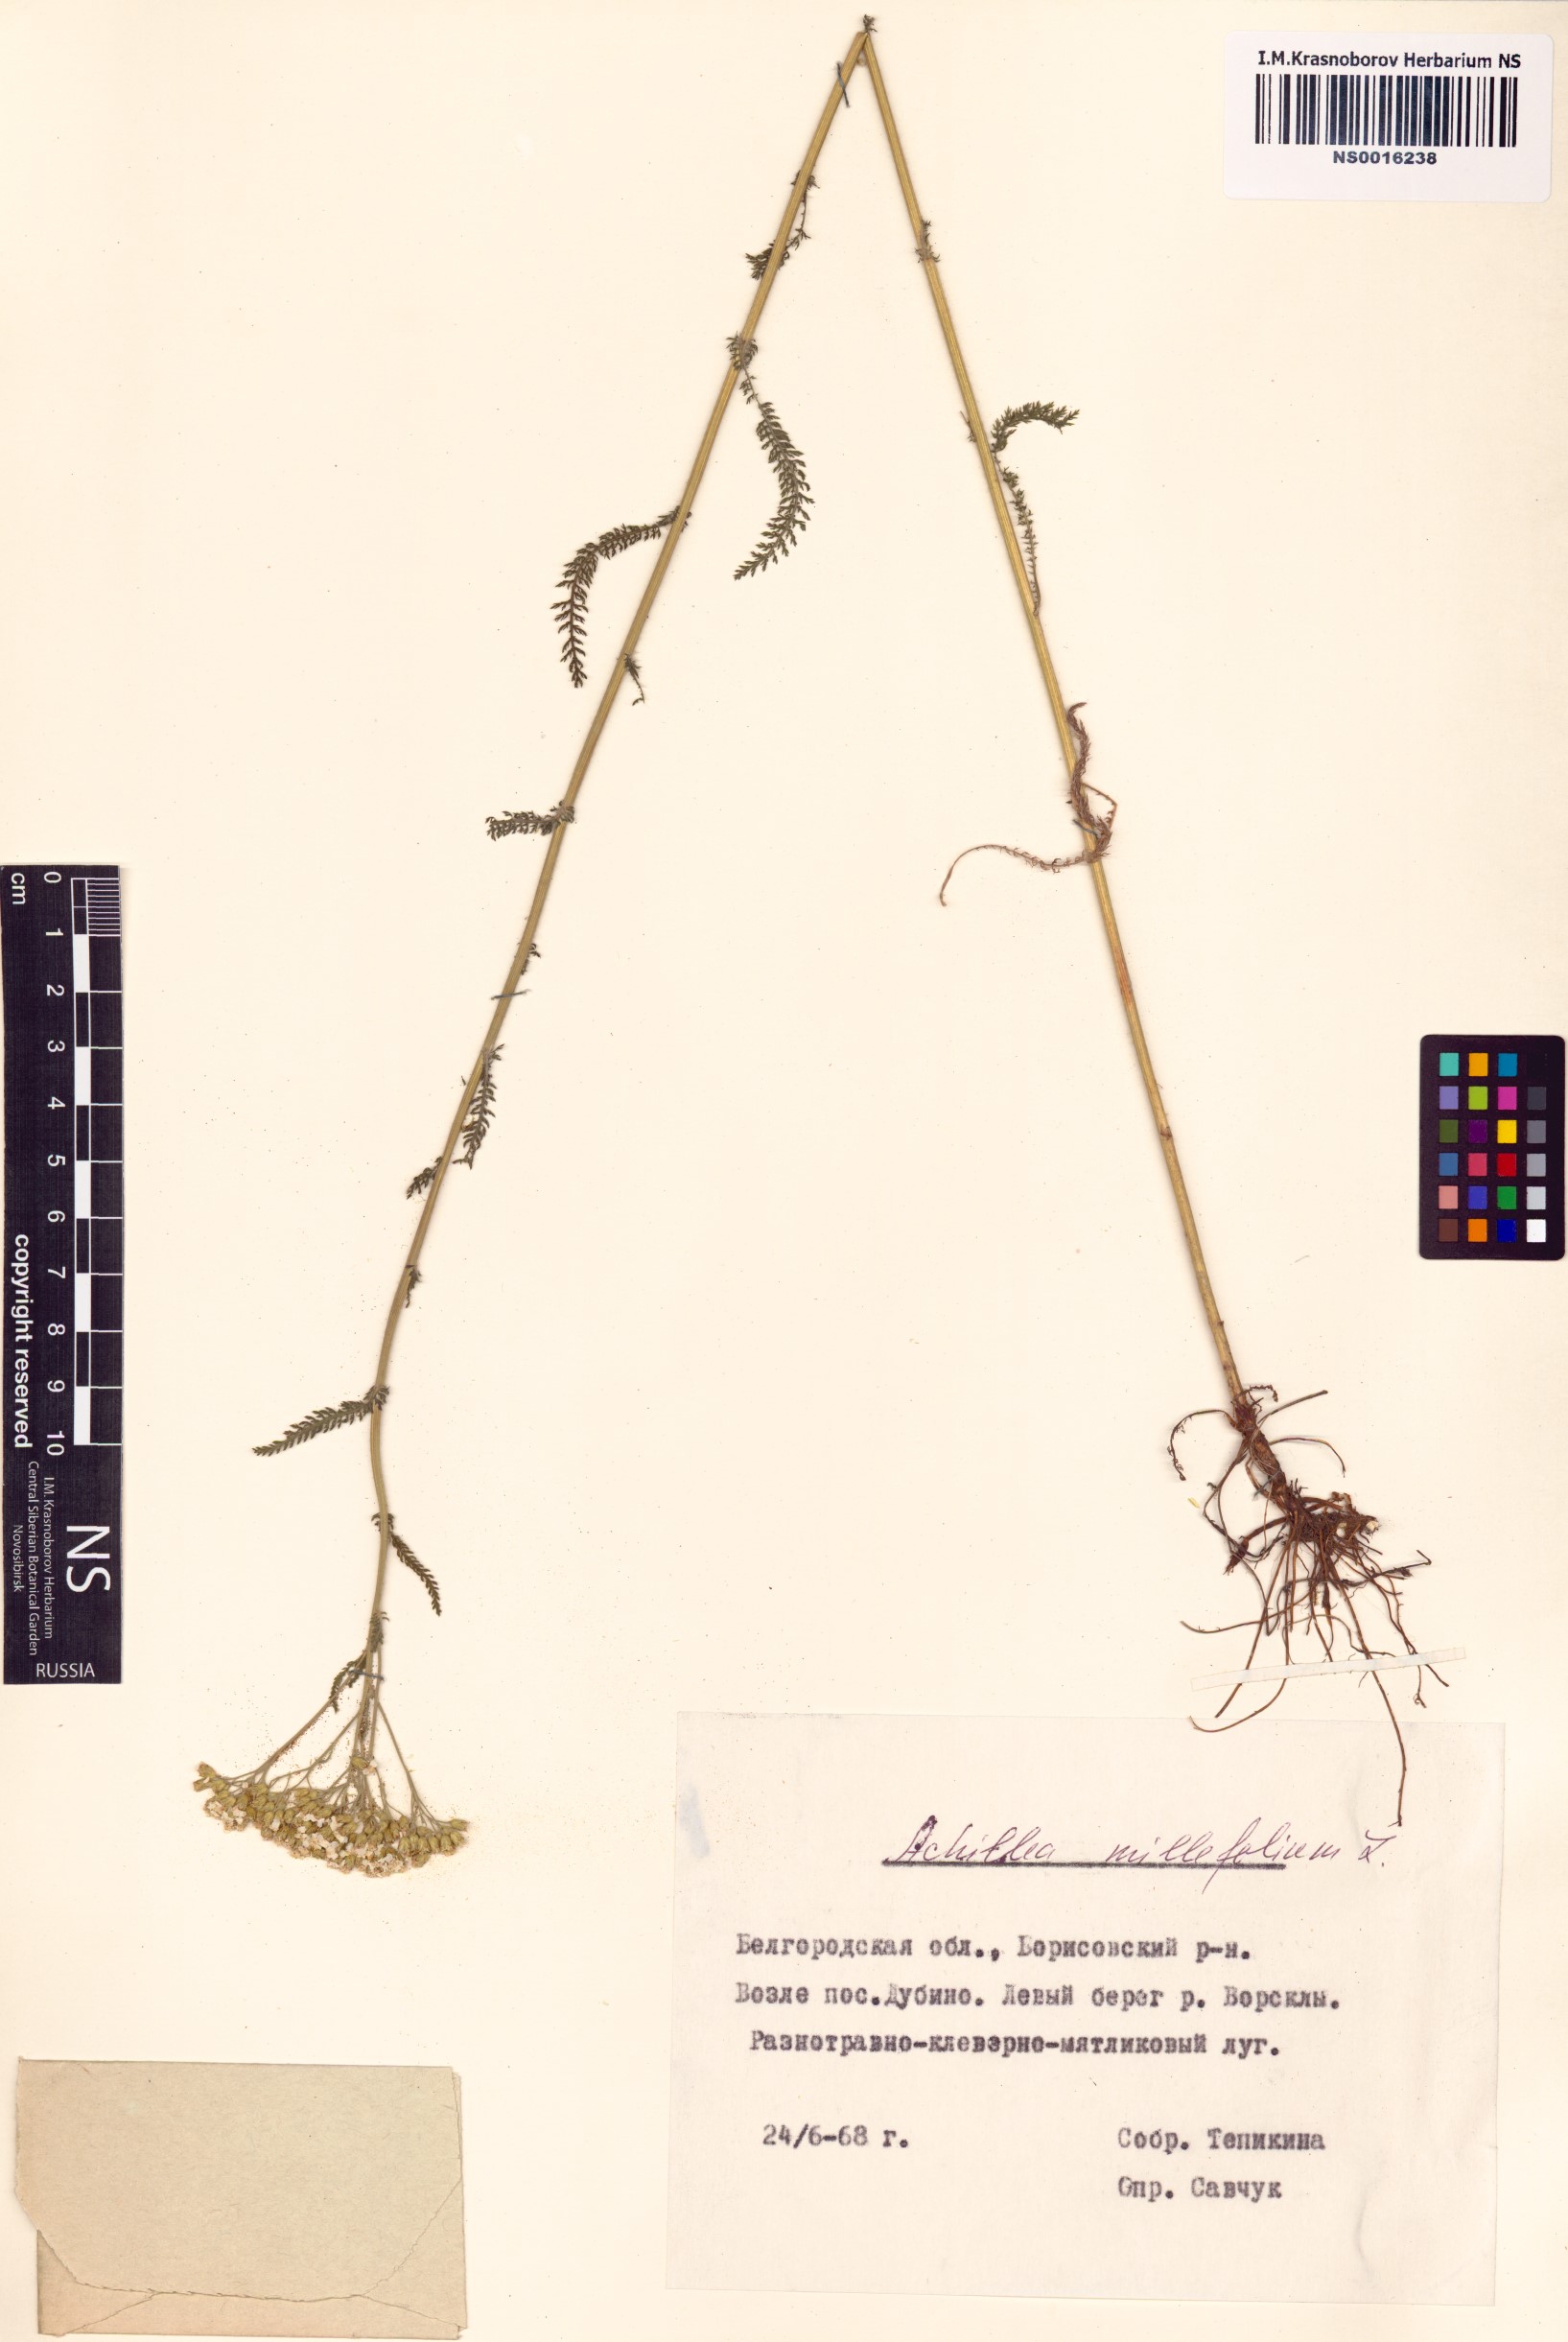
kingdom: Plantae
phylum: Tracheophyta
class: Magnoliopsida
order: Asterales
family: Asteraceae
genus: Achillea
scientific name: Achillea millefolium
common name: Yarrow
